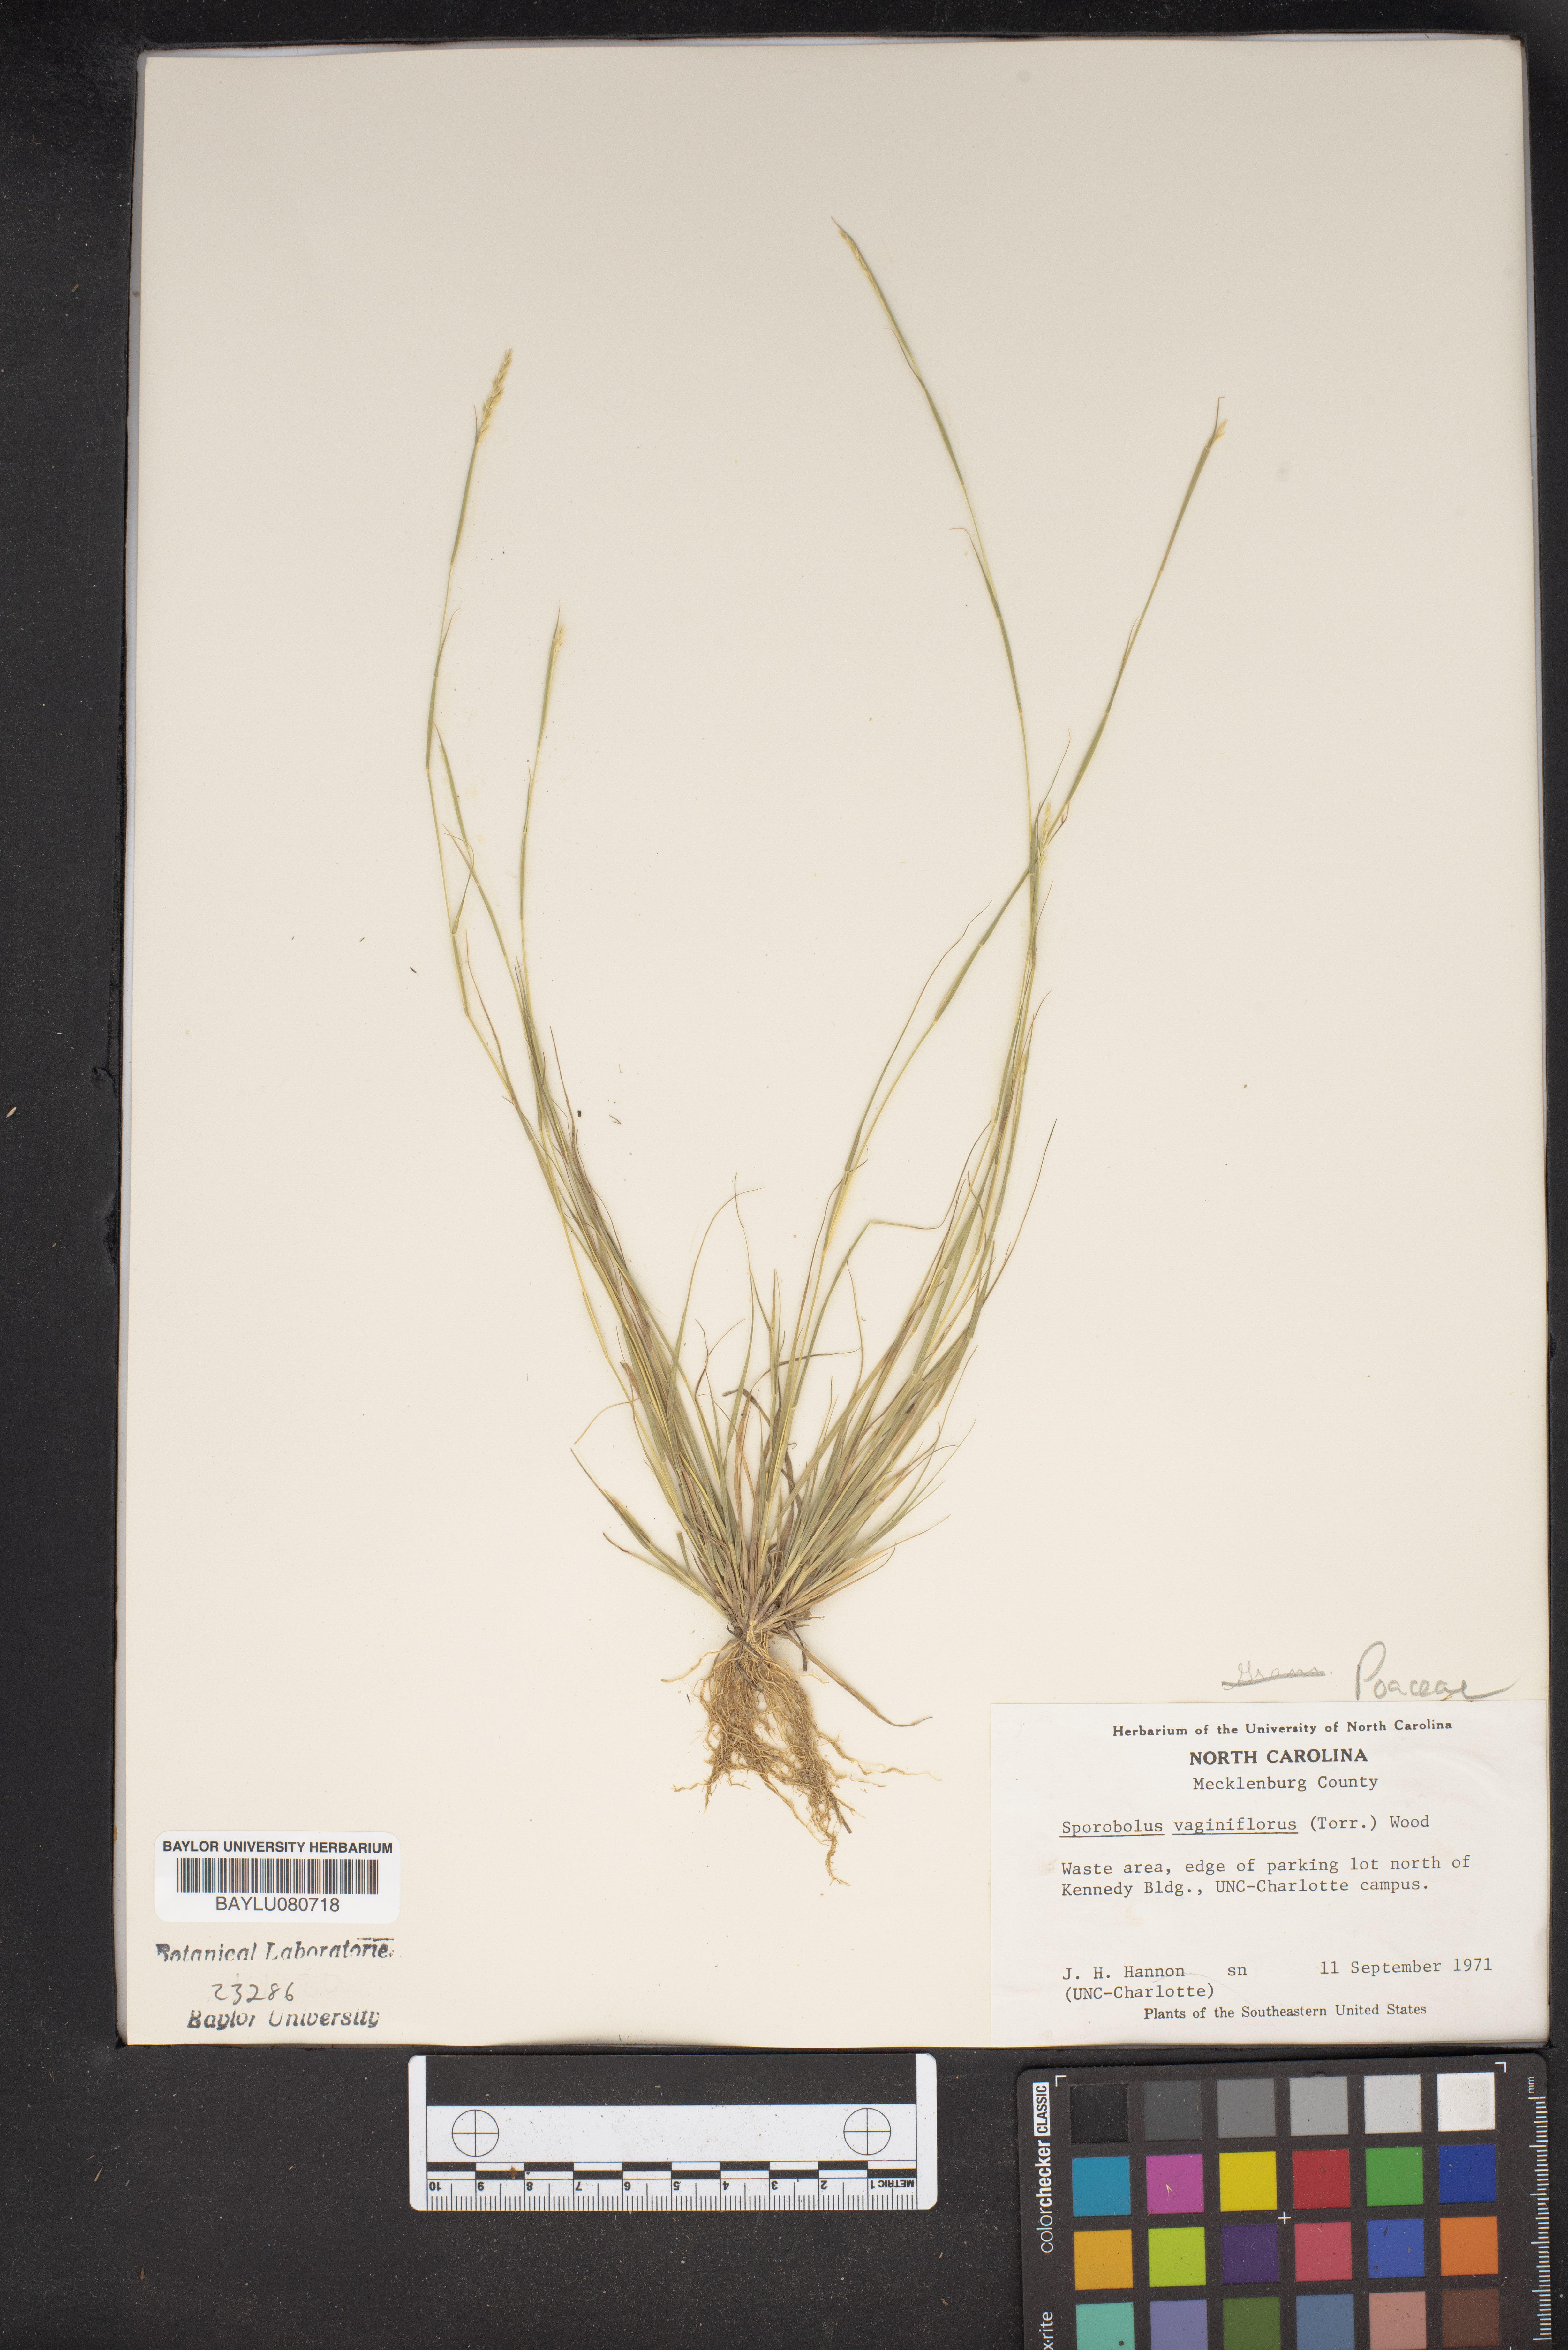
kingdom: Plantae
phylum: Tracheophyta
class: Liliopsida
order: Poales
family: Poaceae
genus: Sporobolus
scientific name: Sporobolus vaginiflorus
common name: Poverty dropseed
